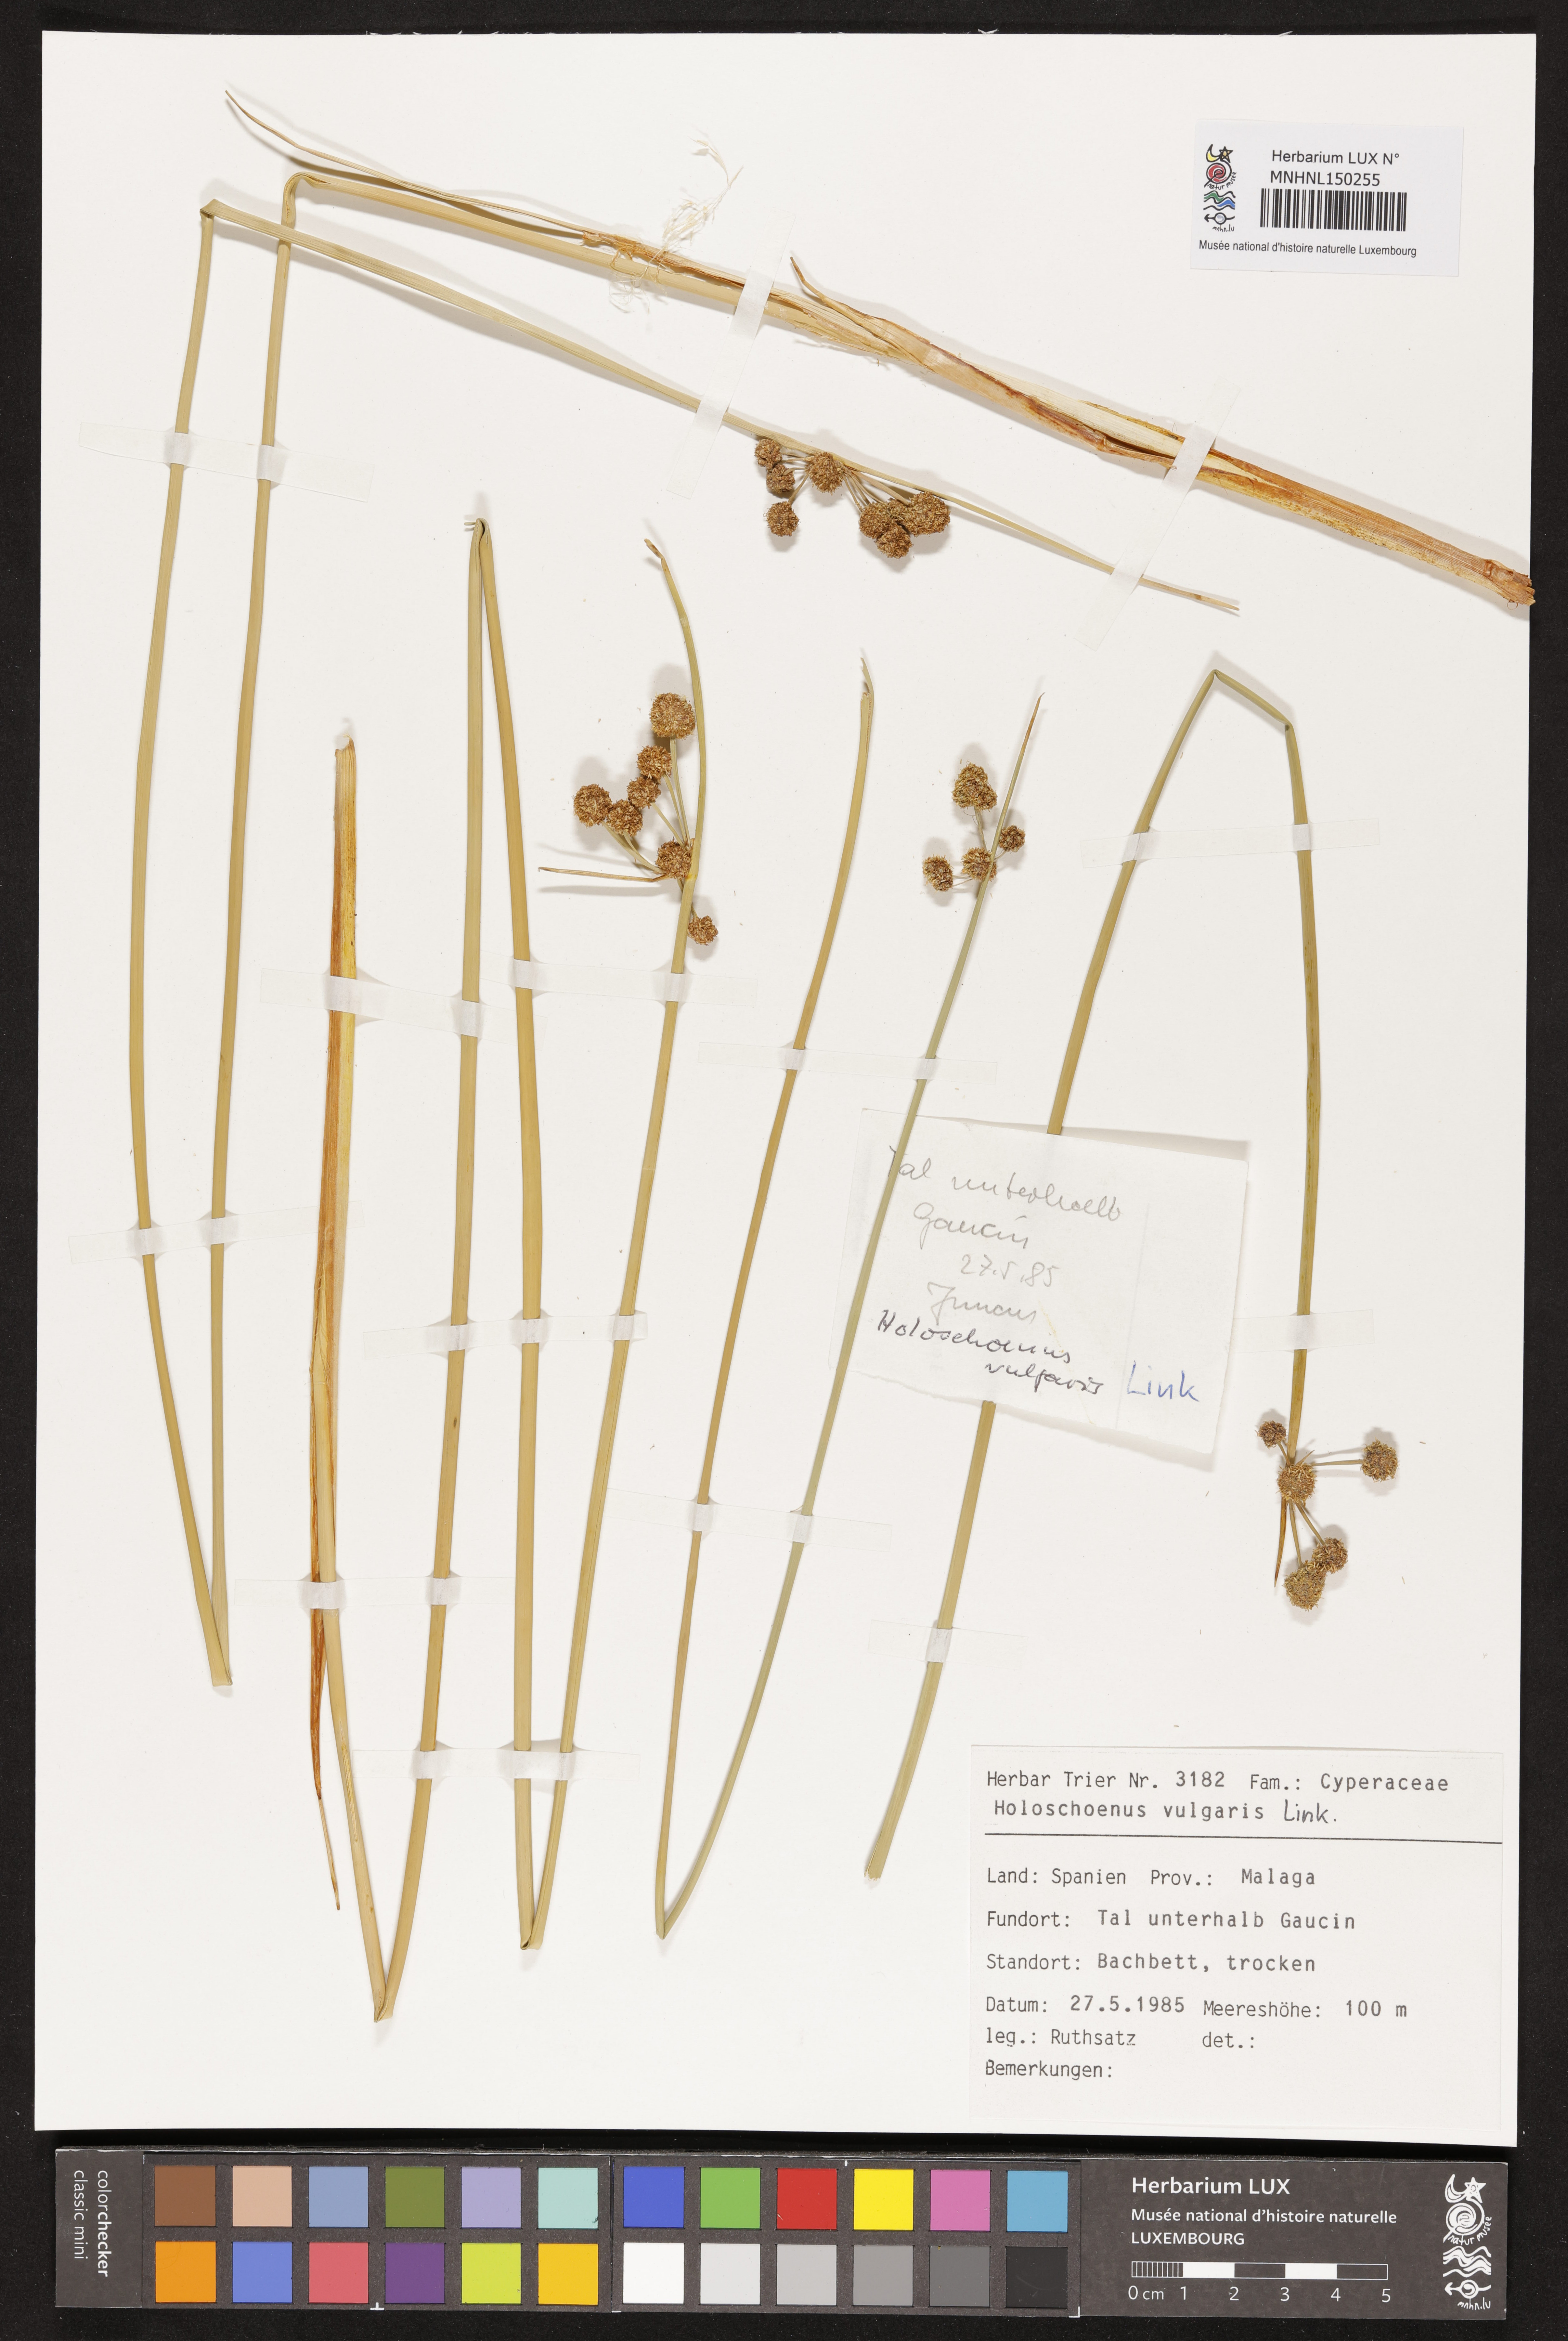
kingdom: Plantae
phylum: Tracheophyta
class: Liliopsida
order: Poales
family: Cyperaceae
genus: Scirpoides
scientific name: Scirpoides holoschoenus
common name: Round-headed club-rush
